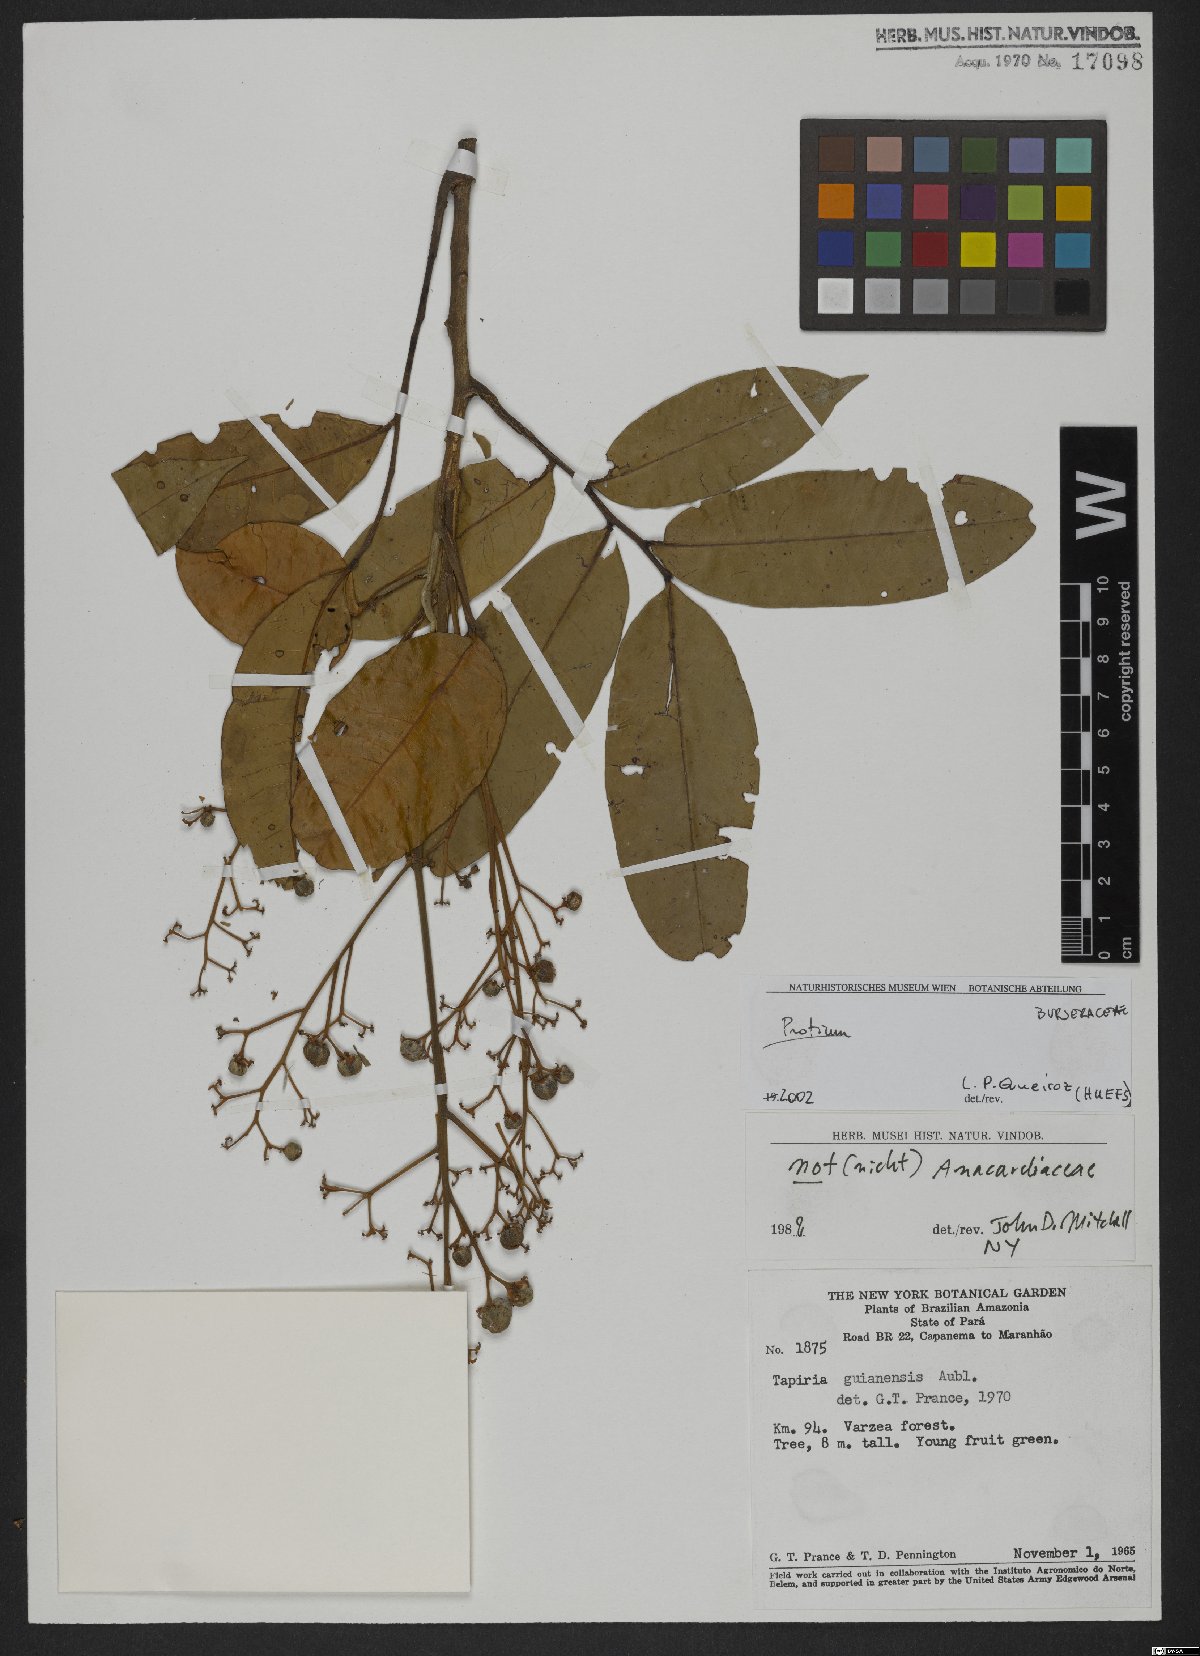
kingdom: Plantae
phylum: Tracheophyta
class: Magnoliopsida
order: Sapindales
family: Meliaceae
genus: Trichilia
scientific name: Trichilia
